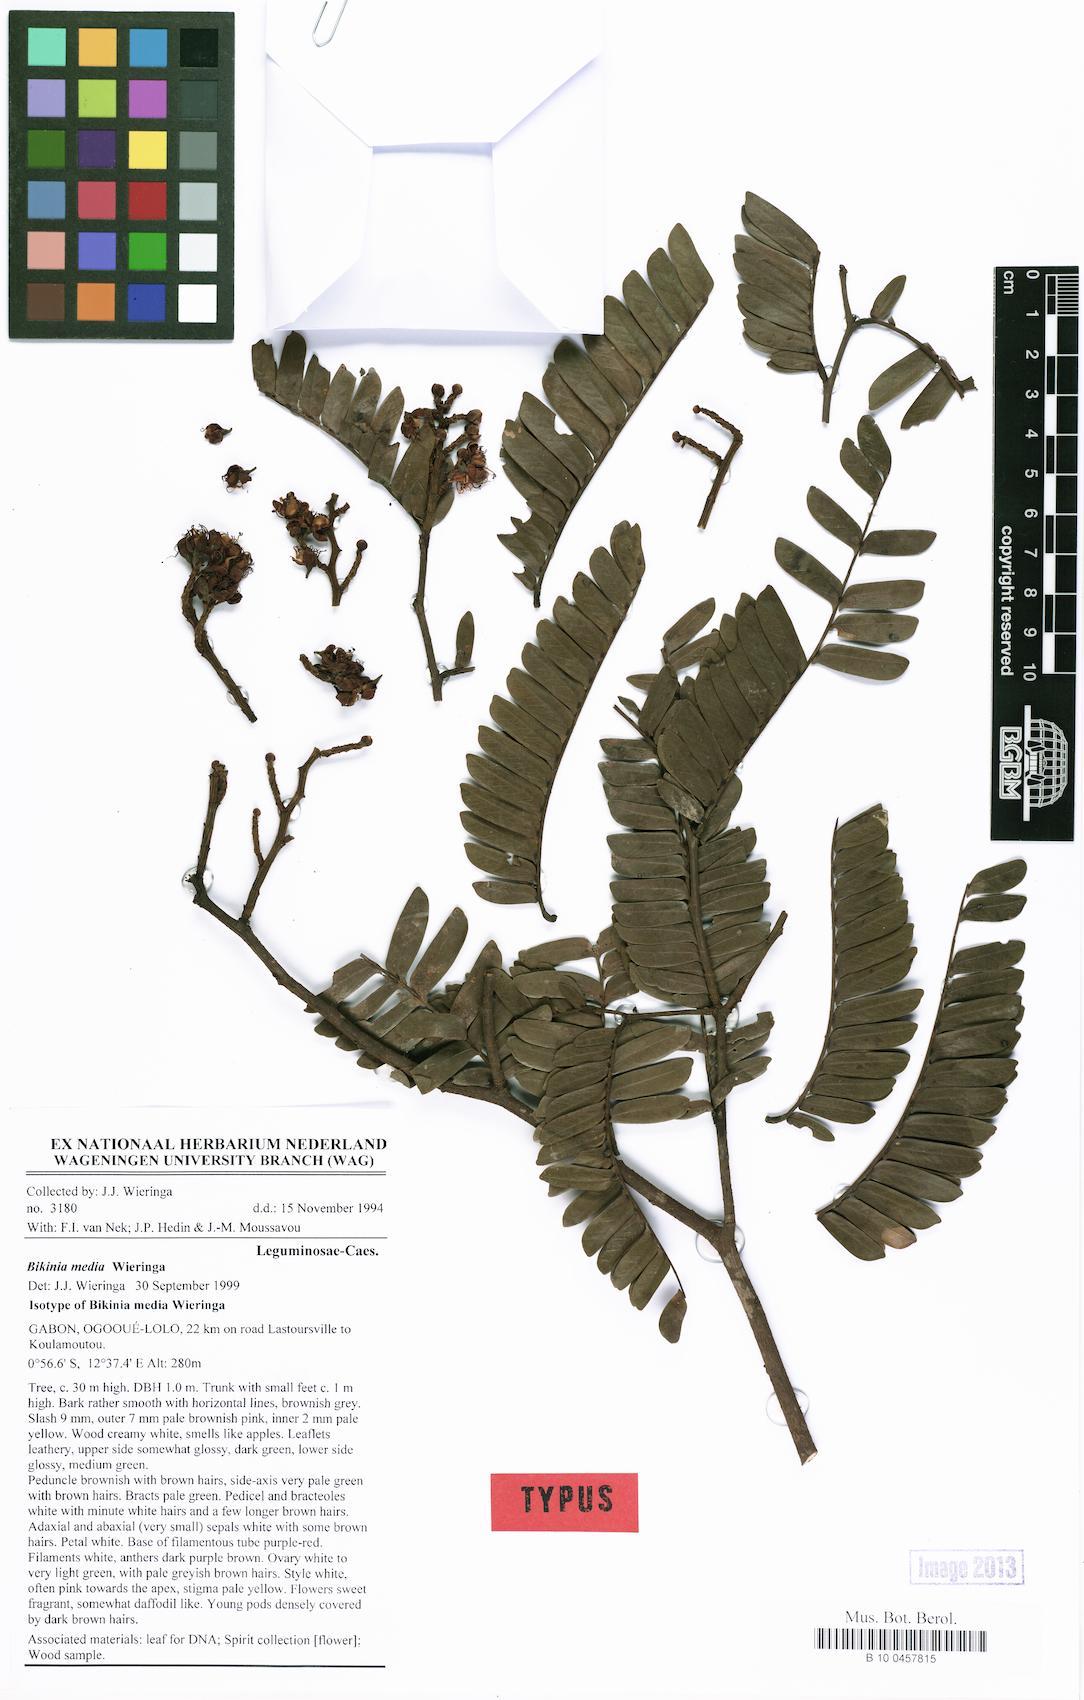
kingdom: Plantae
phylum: Tracheophyta
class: Magnoliopsida
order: Fabales
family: Fabaceae
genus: Bikinia
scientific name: Bikinia media
